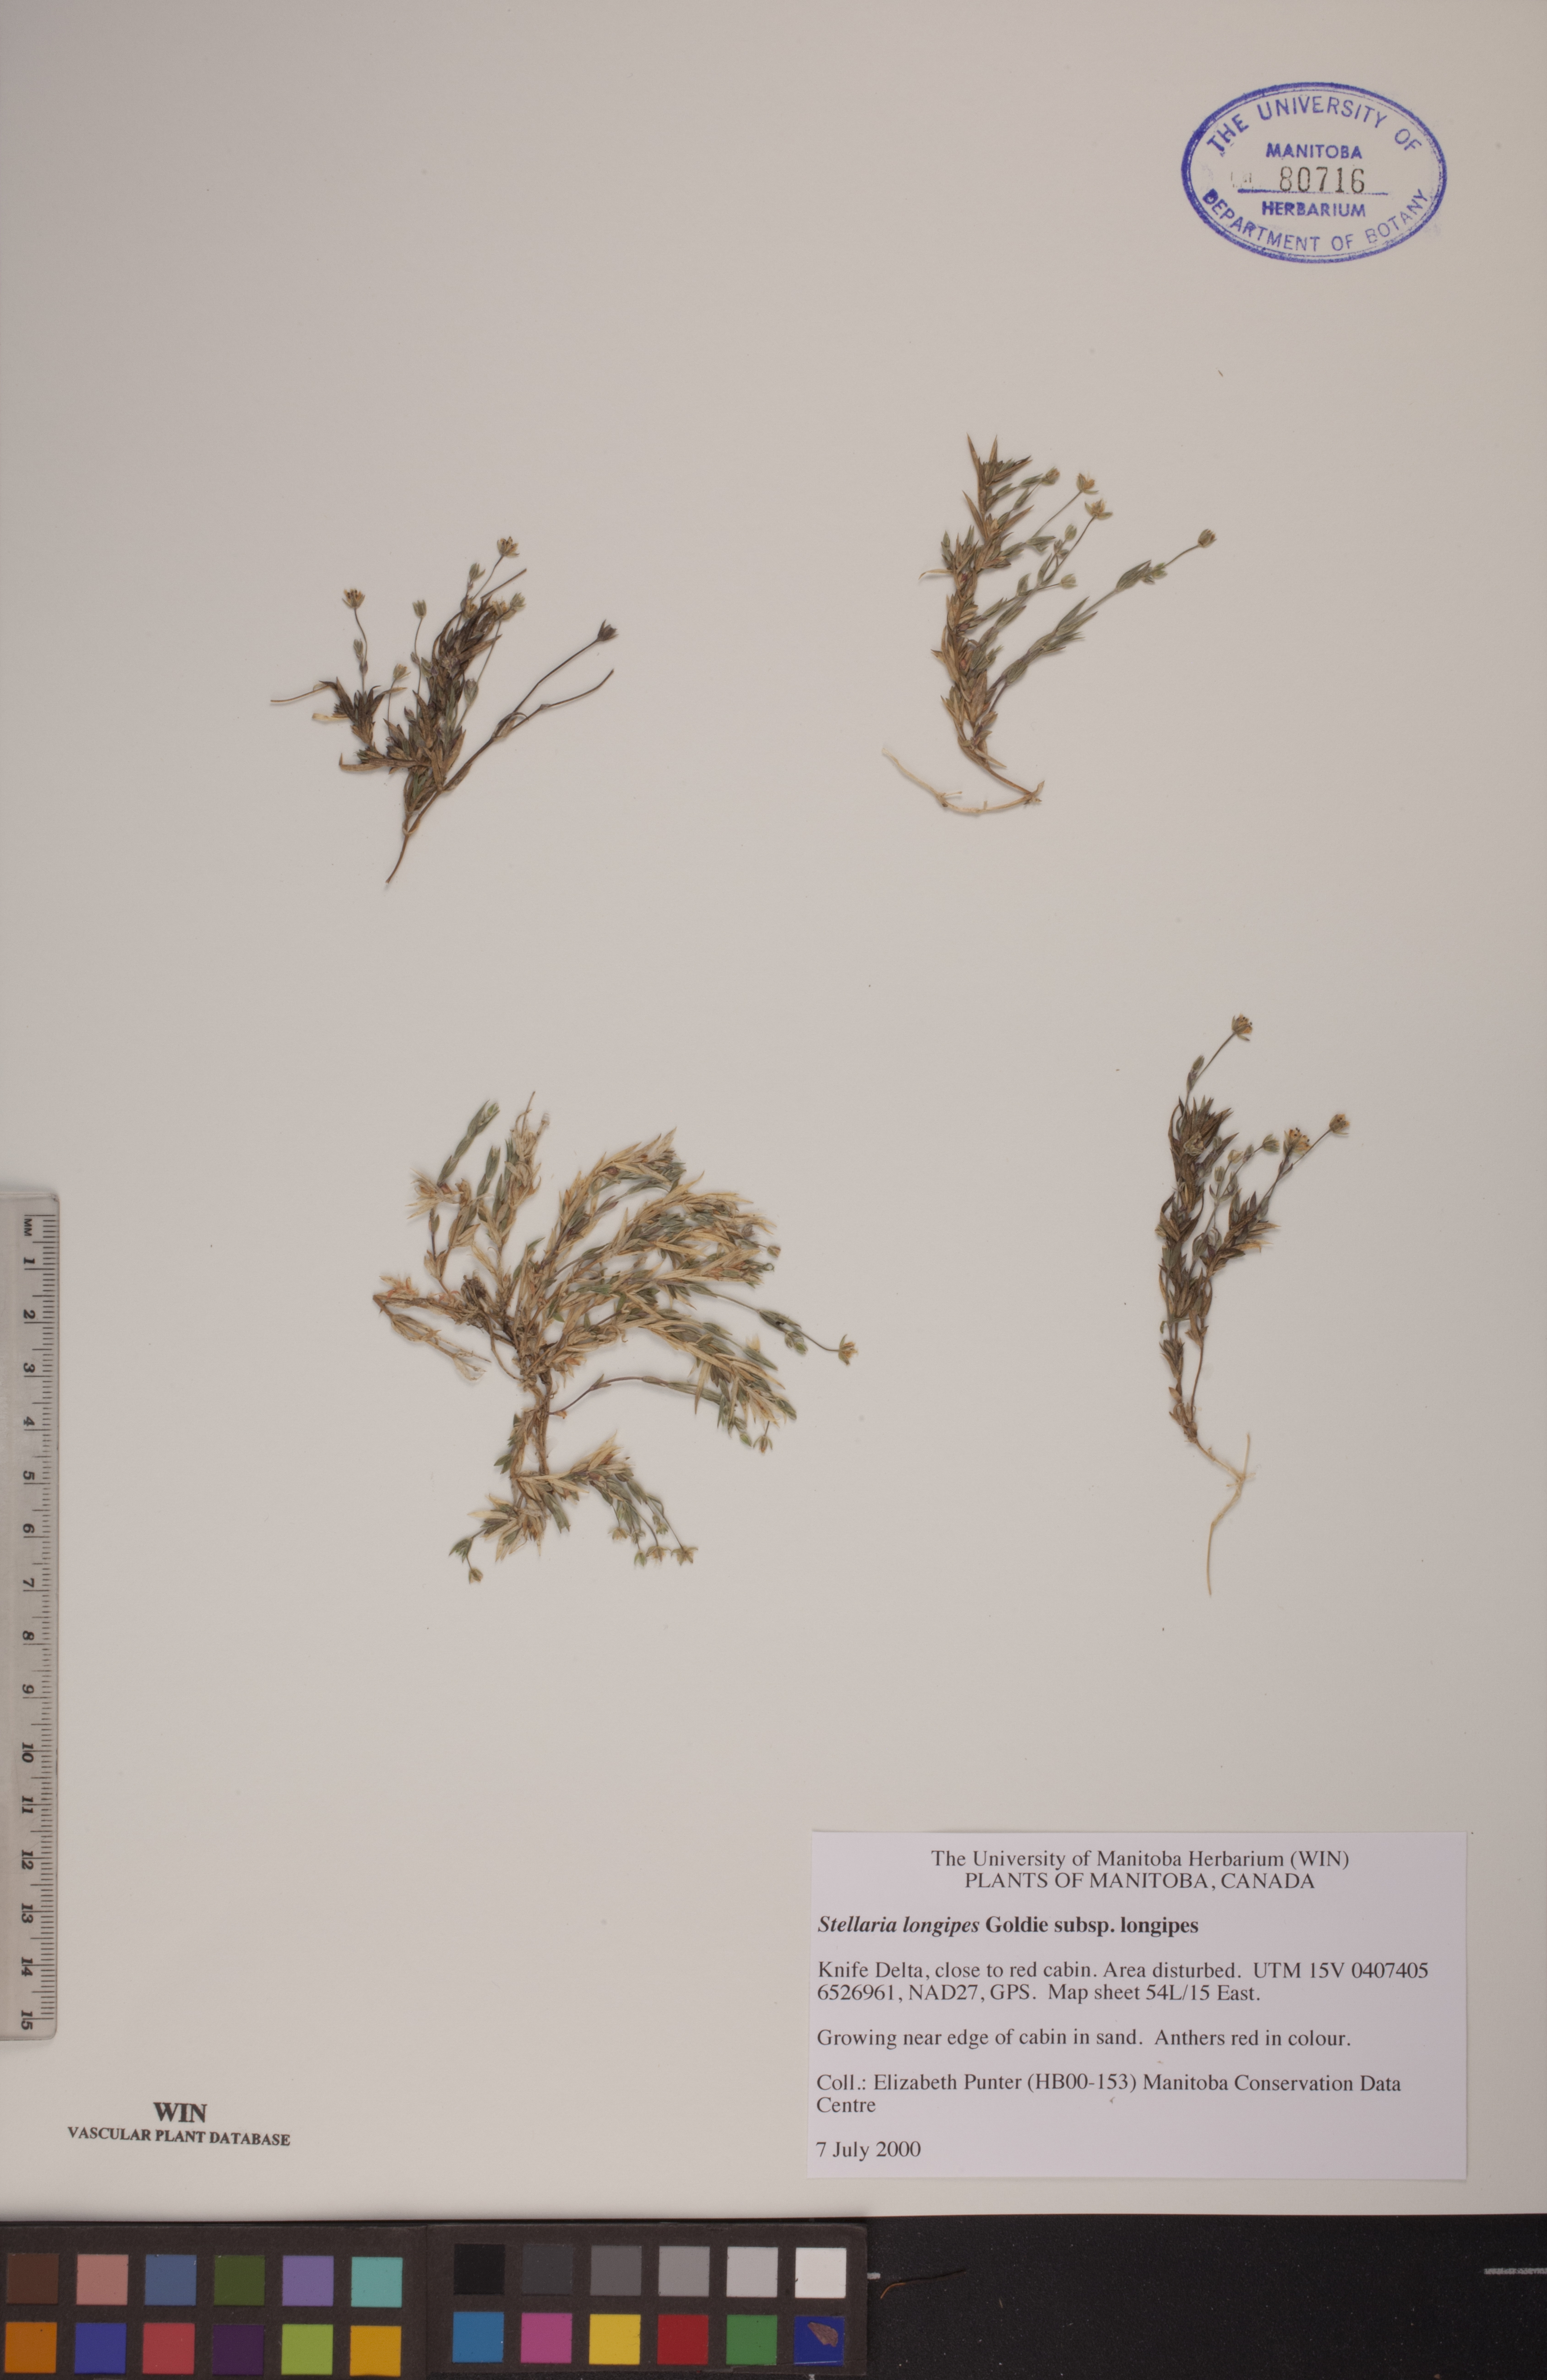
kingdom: Plantae
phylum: Tracheophyta
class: Magnoliopsida
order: Caryophyllales
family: Caryophyllaceae
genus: Stellaria
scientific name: Stellaria longipes
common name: Goldie's starwort
